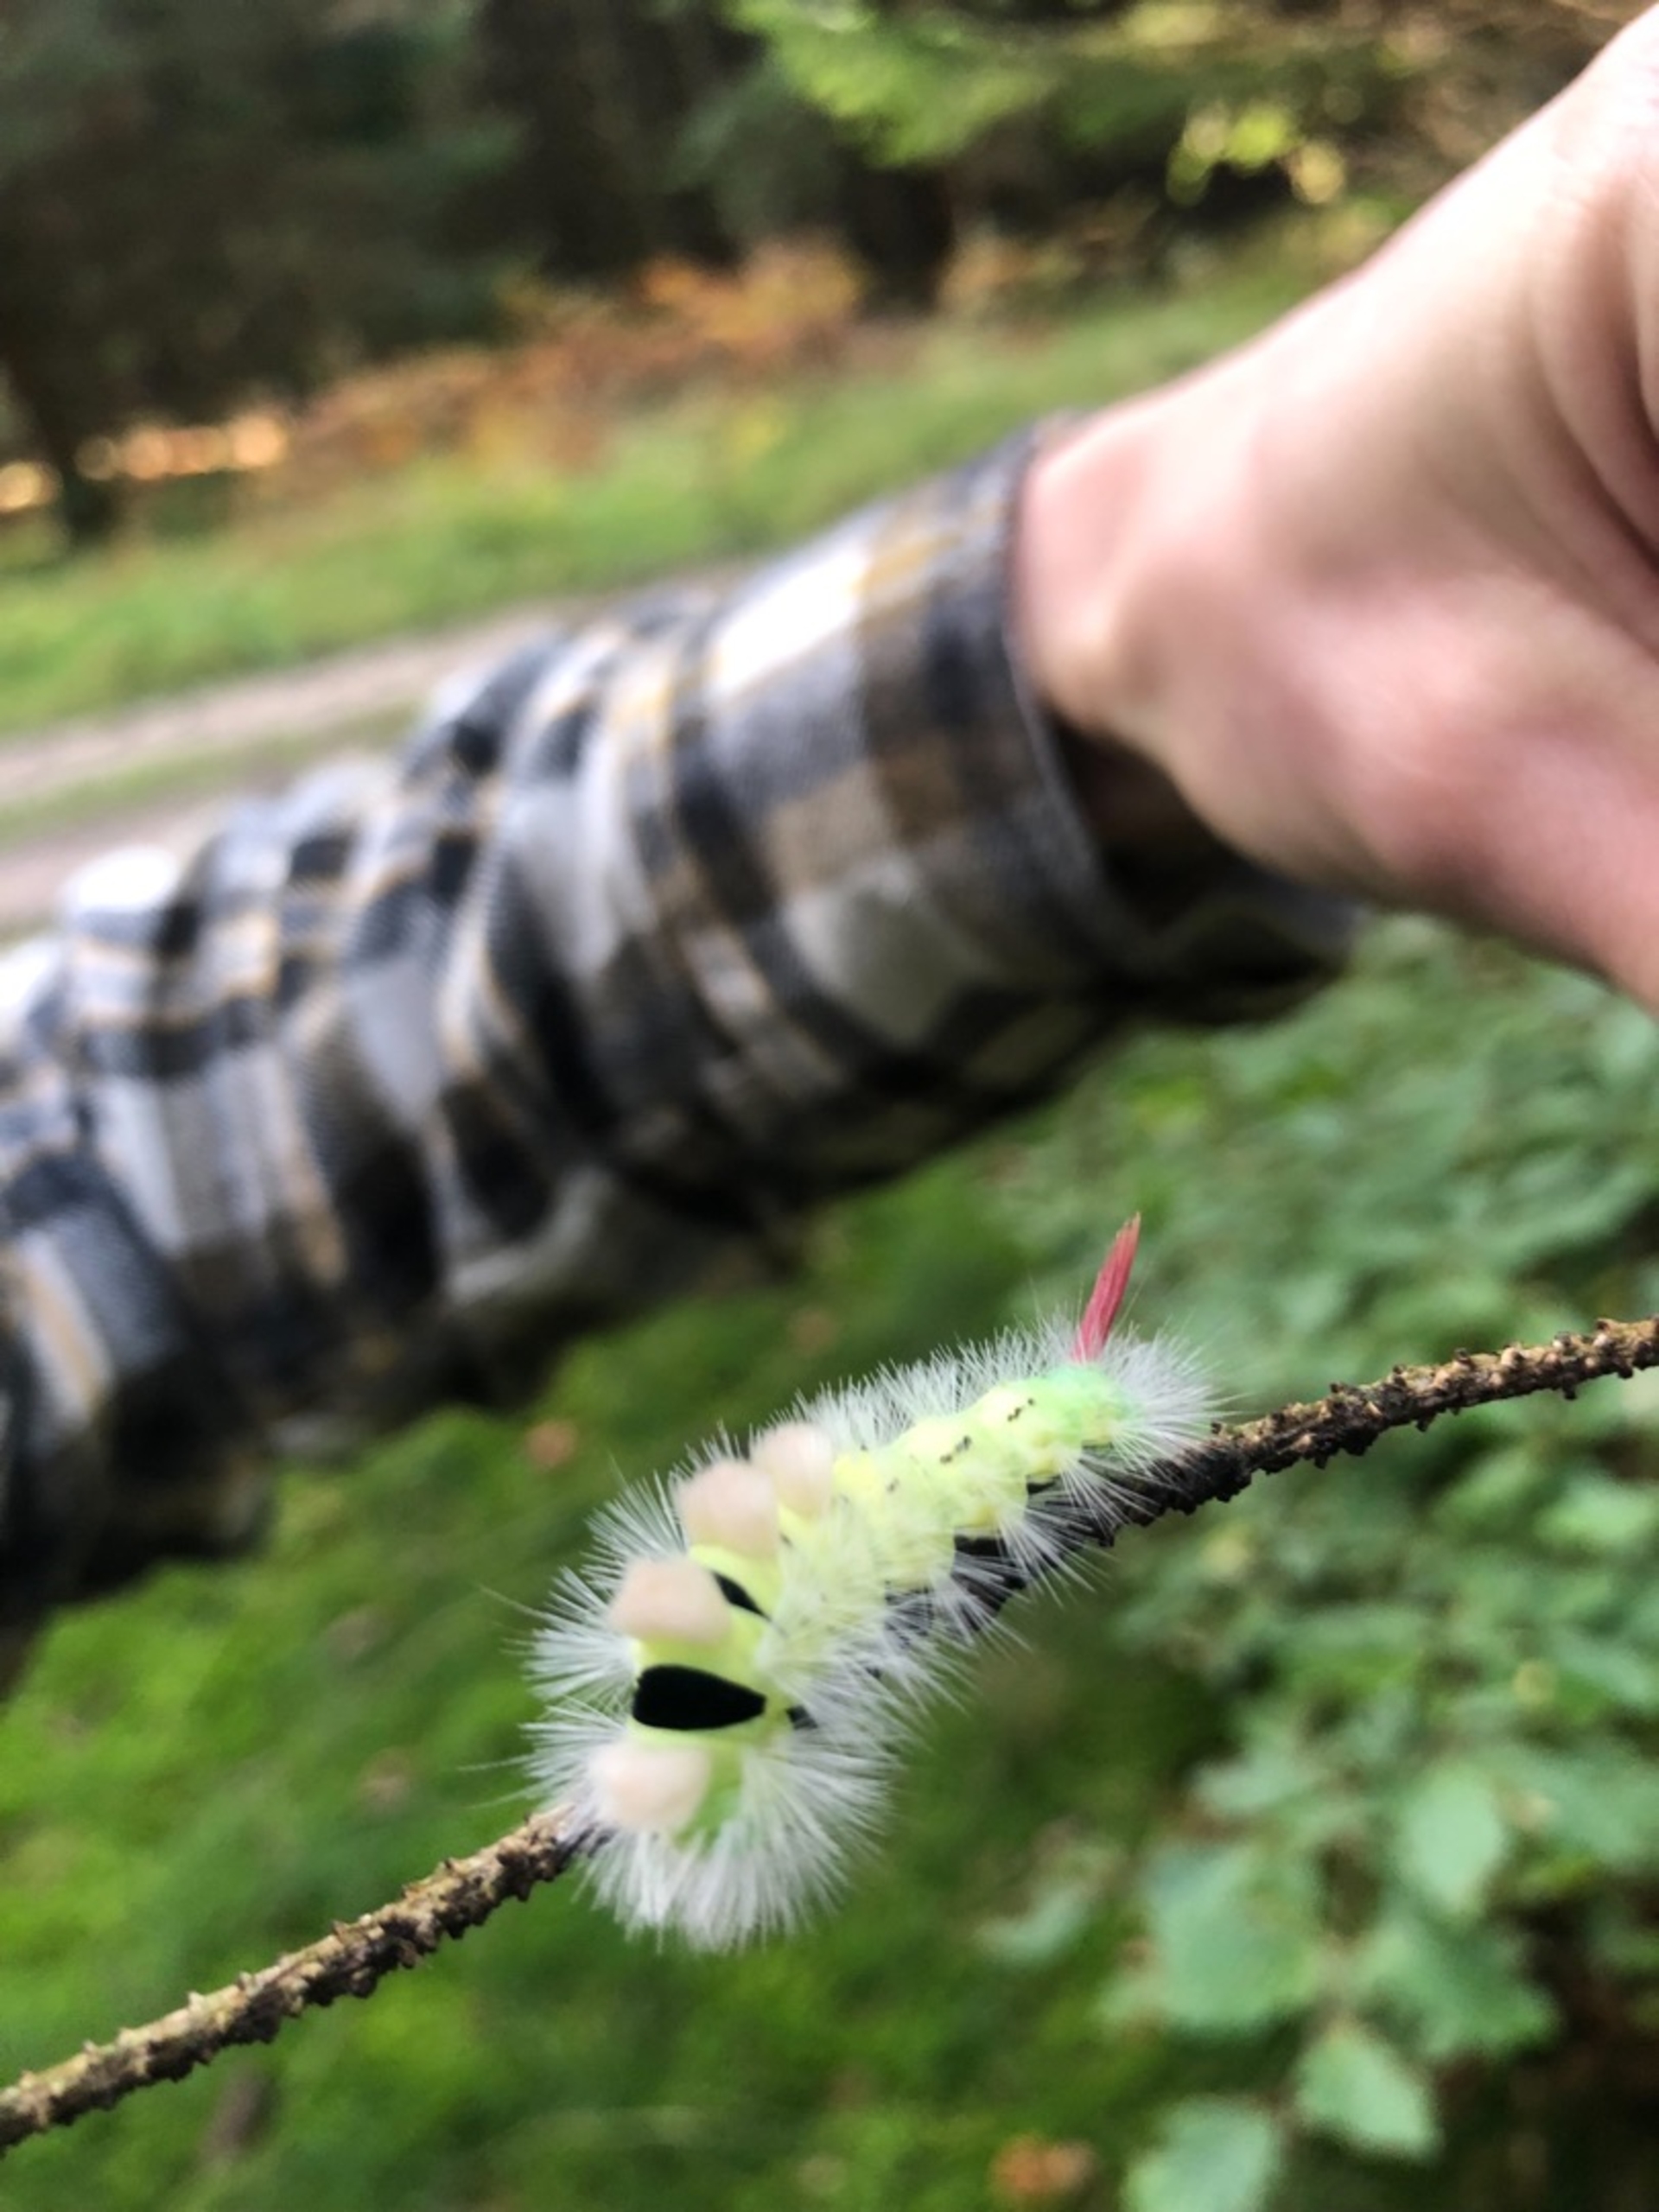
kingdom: Animalia
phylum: Arthropoda
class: Insecta
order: Lepidoptera
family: Erebidae
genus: Calliteara
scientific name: Calliteara pudibunda
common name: Bøgenonne
